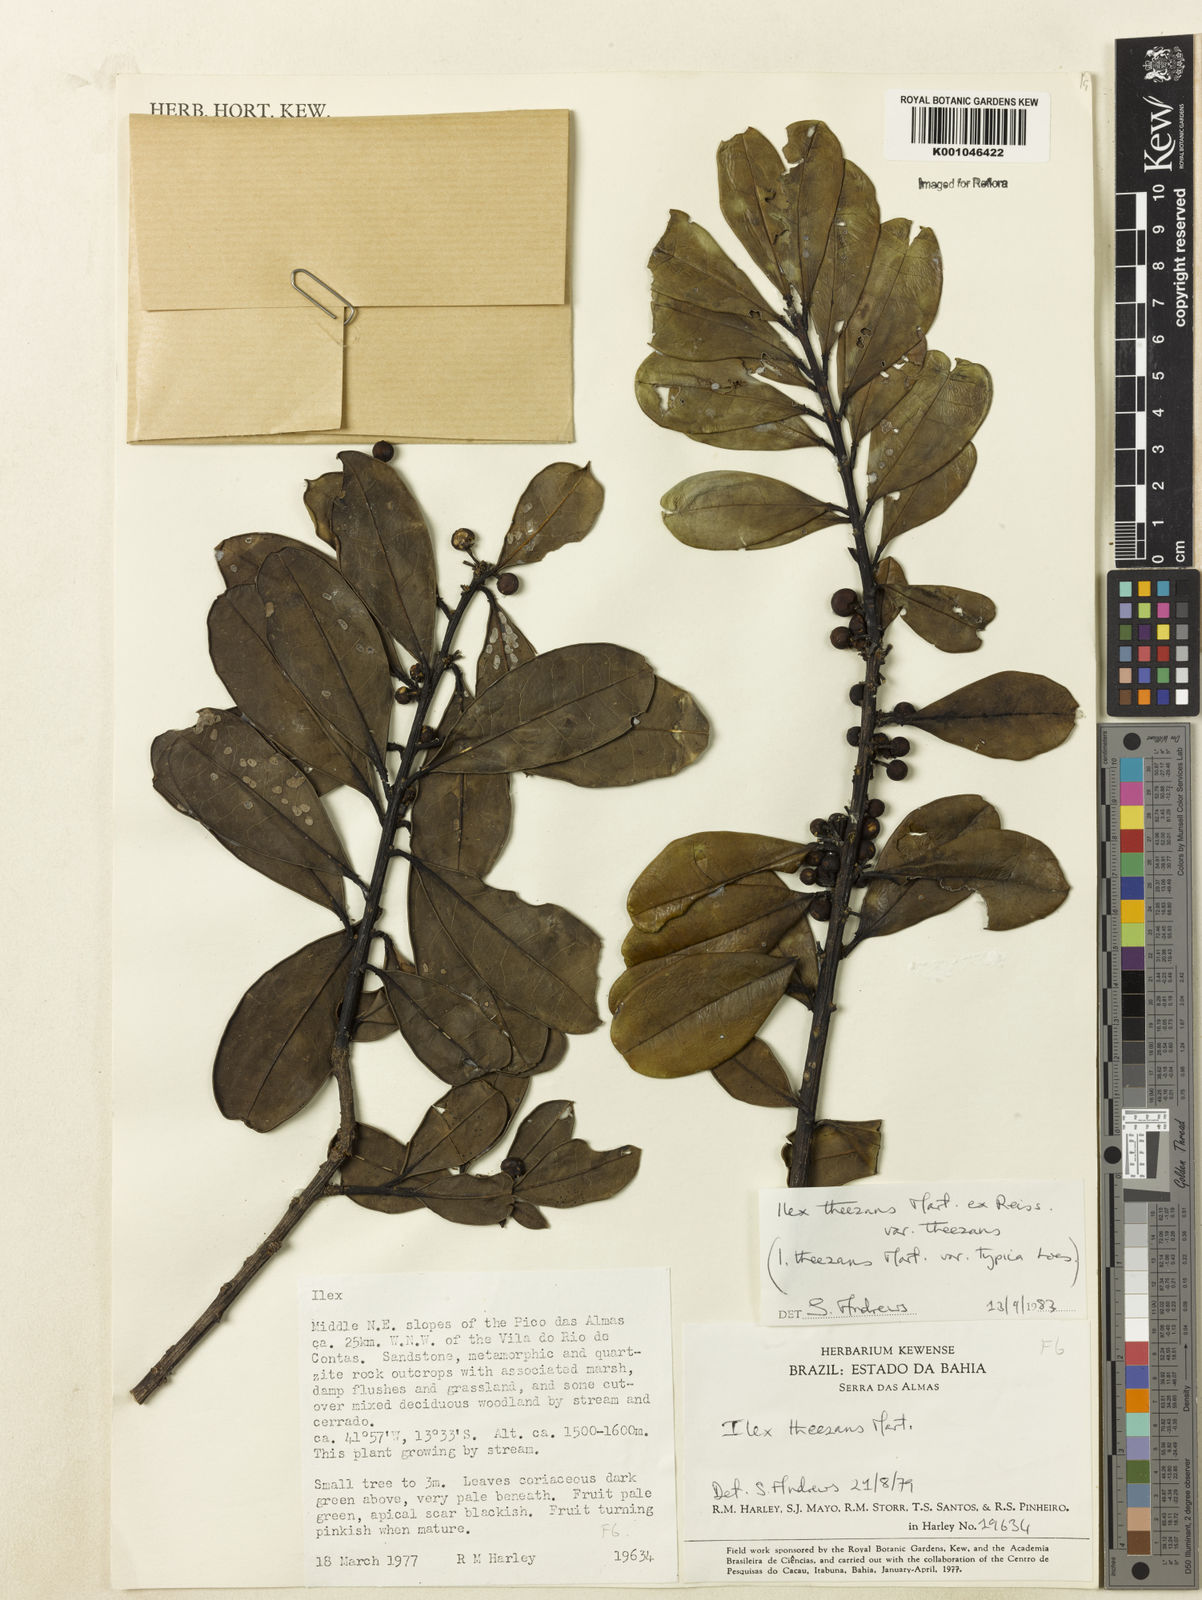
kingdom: Plantae
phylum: Tracheophyta
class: Magnoliopsida
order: Aquifoliales
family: Aquifoliaceae
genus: Ilex
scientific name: Ilex paraguariensis
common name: Paraguay tea
